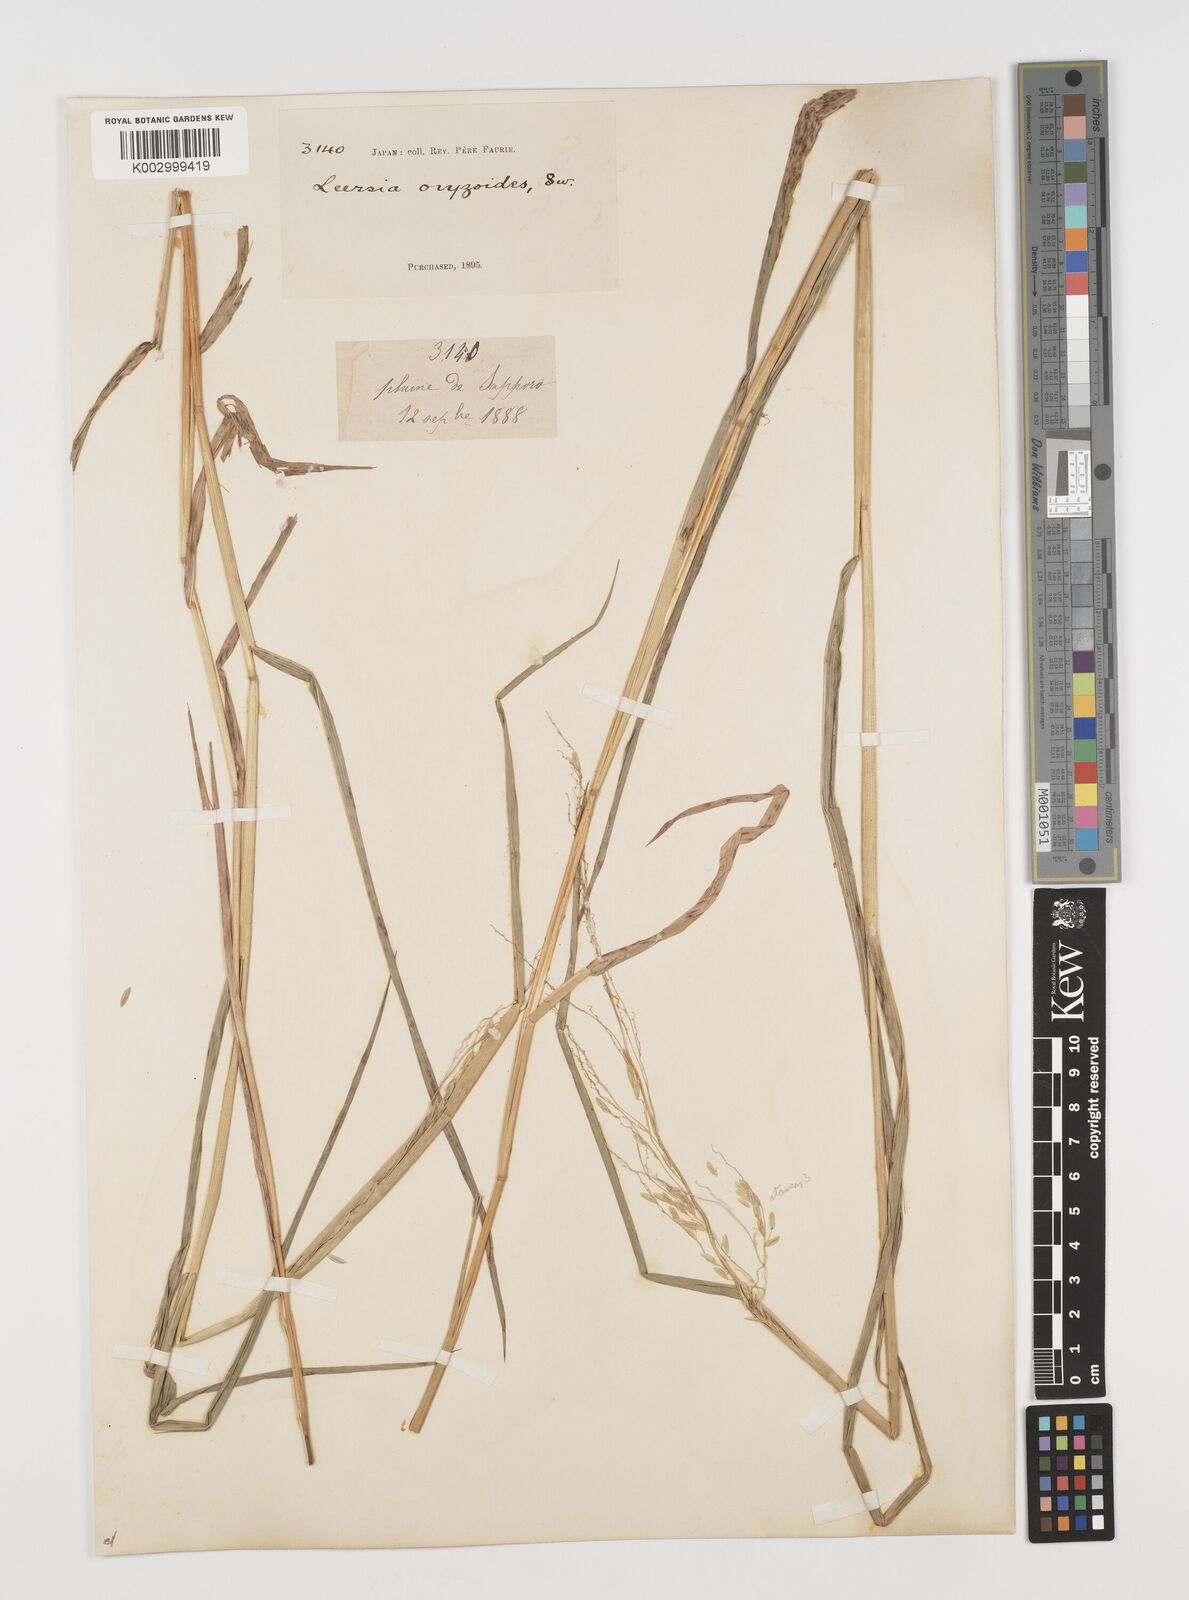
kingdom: Plantae
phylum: Tracheophyta
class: Liliopsida
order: Poales
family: Poaceae
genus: Leersia
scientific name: Leersia oryzoides
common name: Cut-grass
